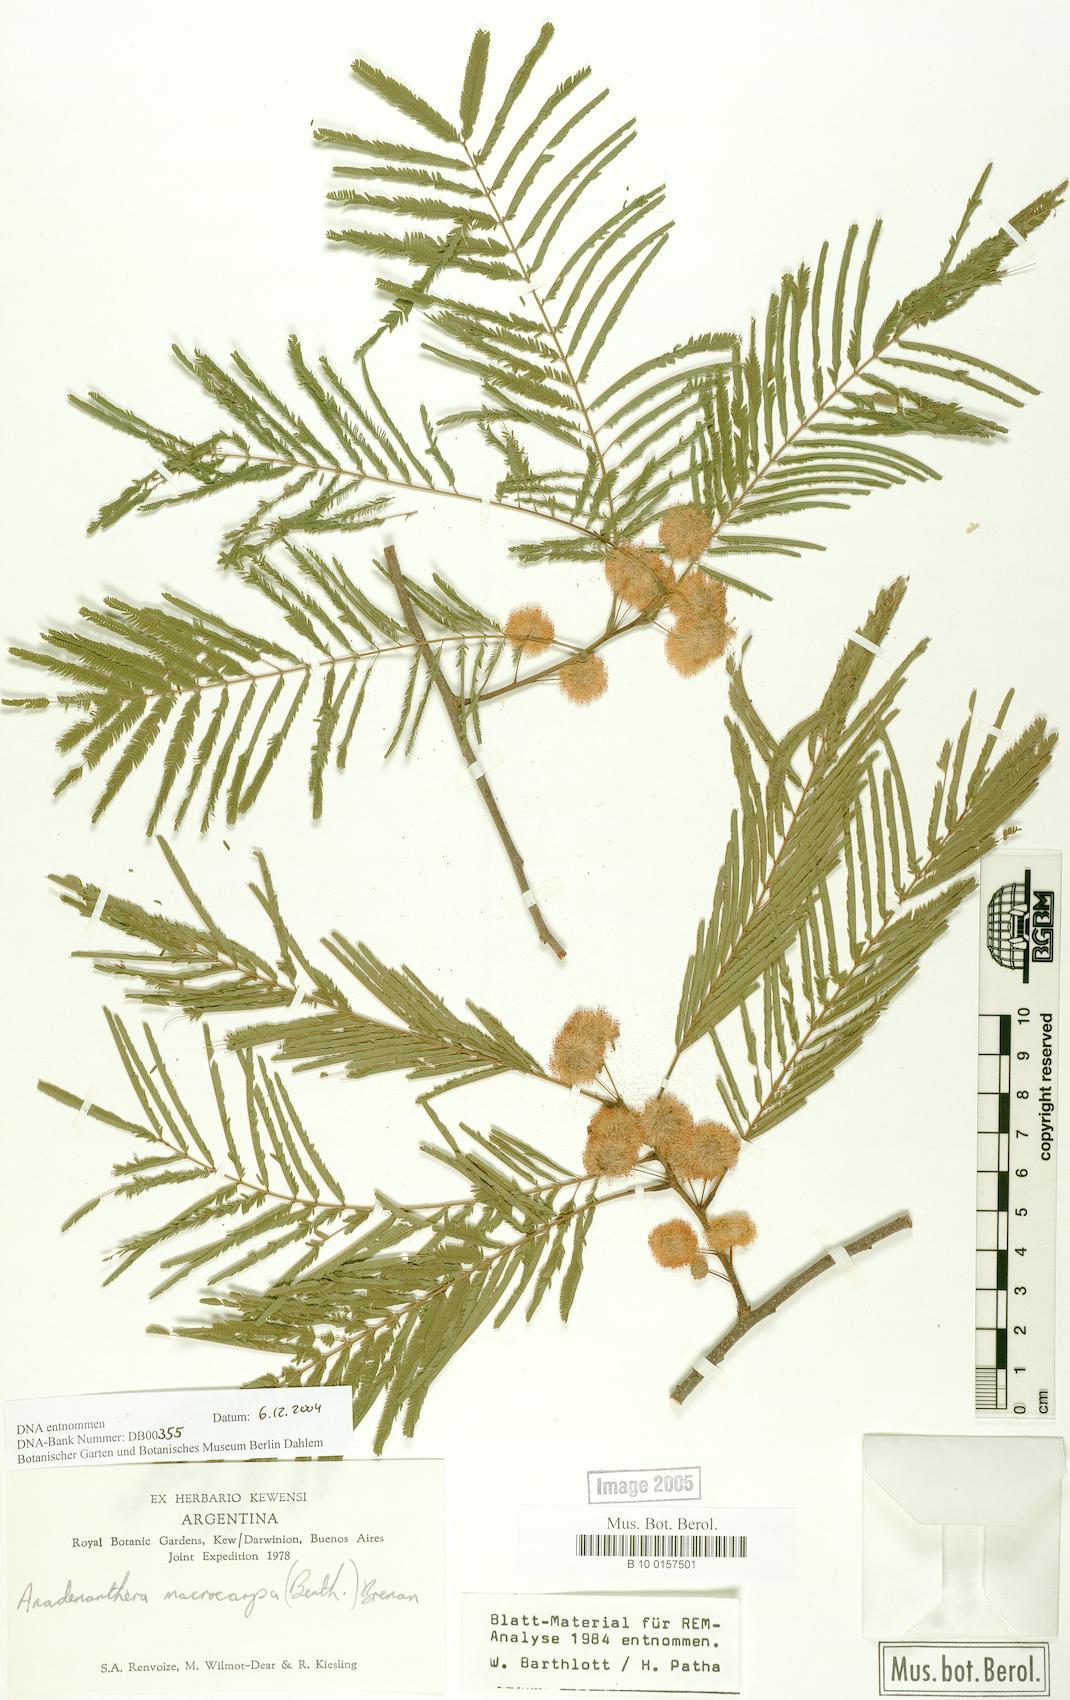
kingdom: Plantae
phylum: Tracheophyta
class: Magnoliopsida
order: Fabales
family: Fabaceae
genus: Anadenanthera
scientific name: Anadenanthera colubrina
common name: Curupay
